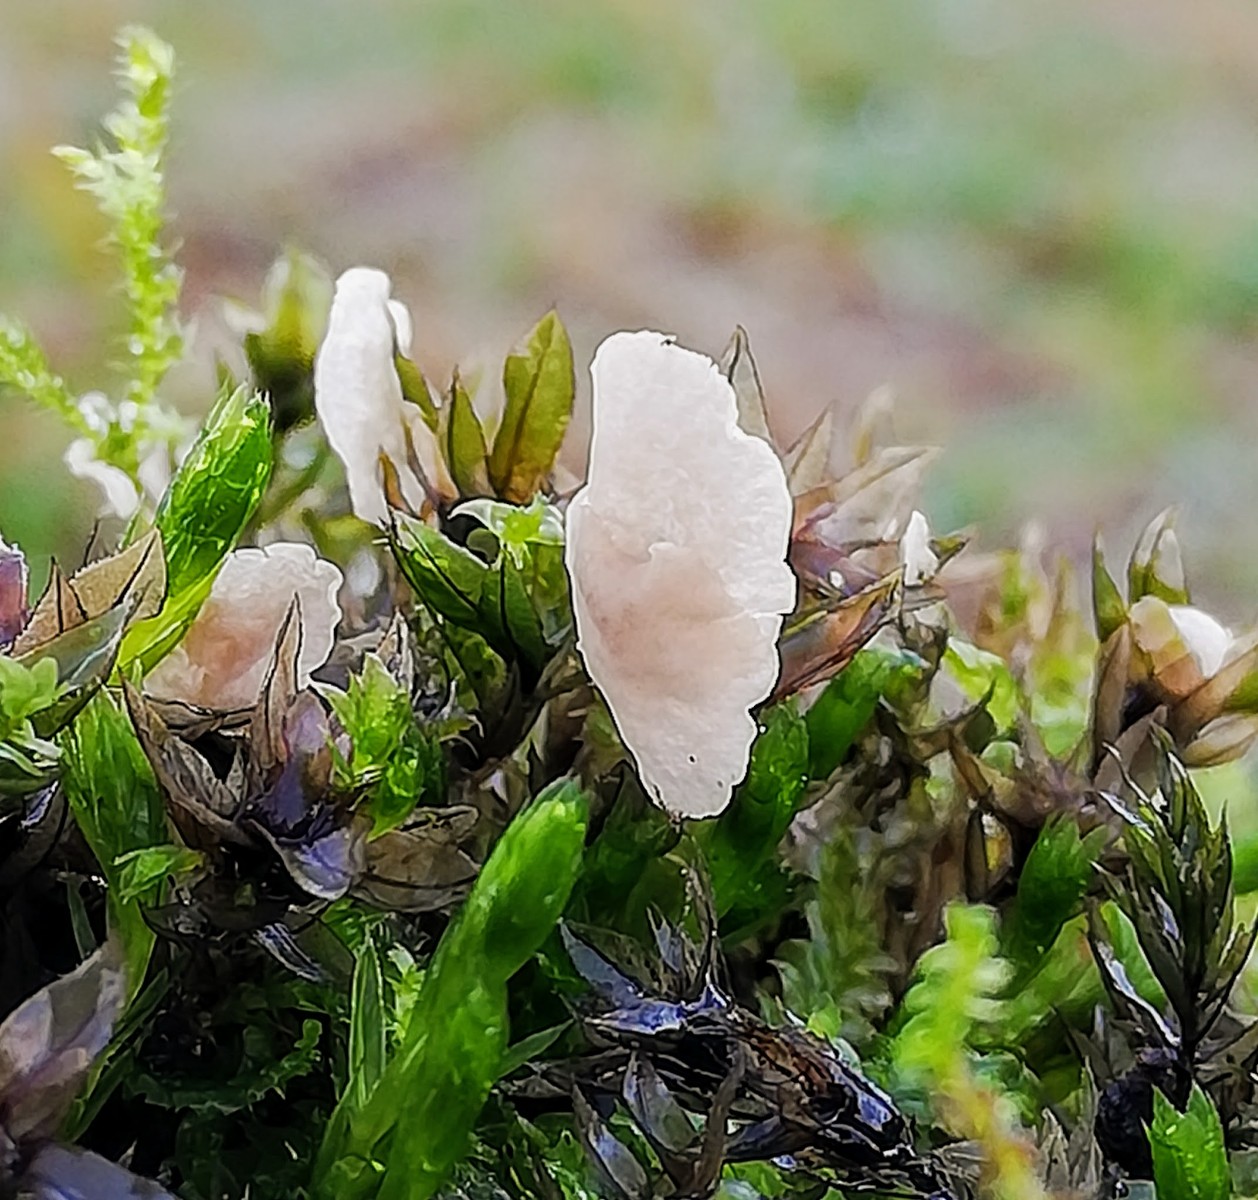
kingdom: Fungi
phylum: Basidiomycota
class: Agaricomycetes
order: Agaricales
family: Hygrophoraceae
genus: Arrhenia
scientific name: Arrhenia retiruga
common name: lille fontænehat
